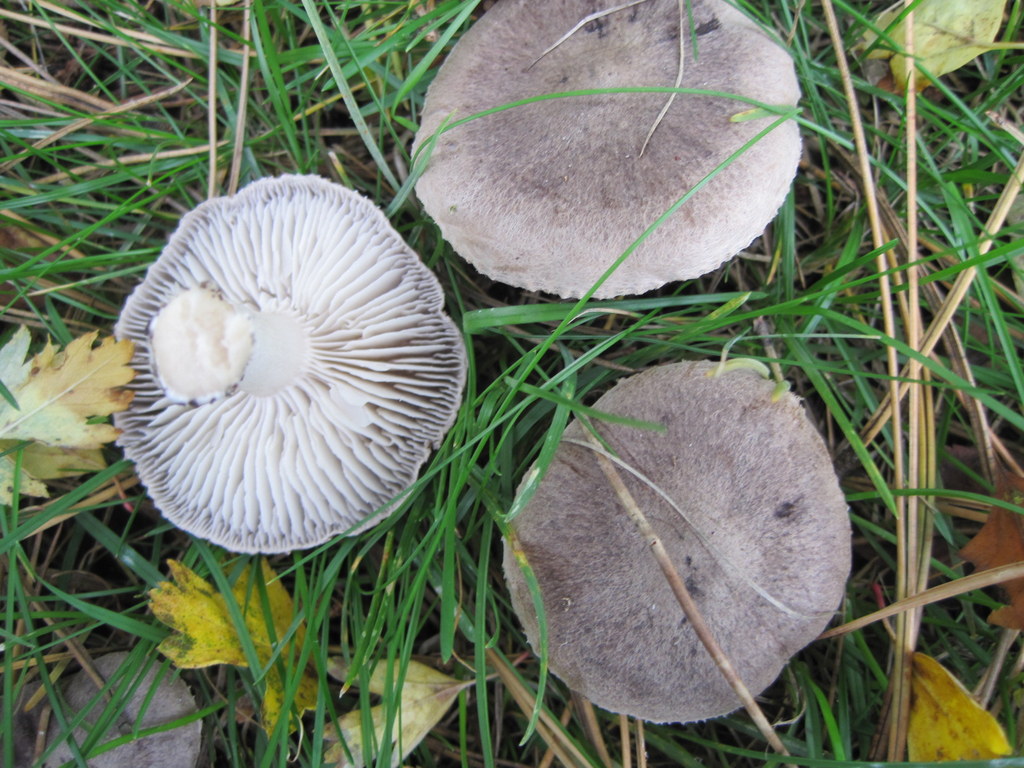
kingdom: Fungi
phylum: Basidiomycota
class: Agaricomycetes
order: Agaricales
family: Tricholomataceae
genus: Tricholoma
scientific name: Tricholoma terreum
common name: jordfarvet ridderhat
